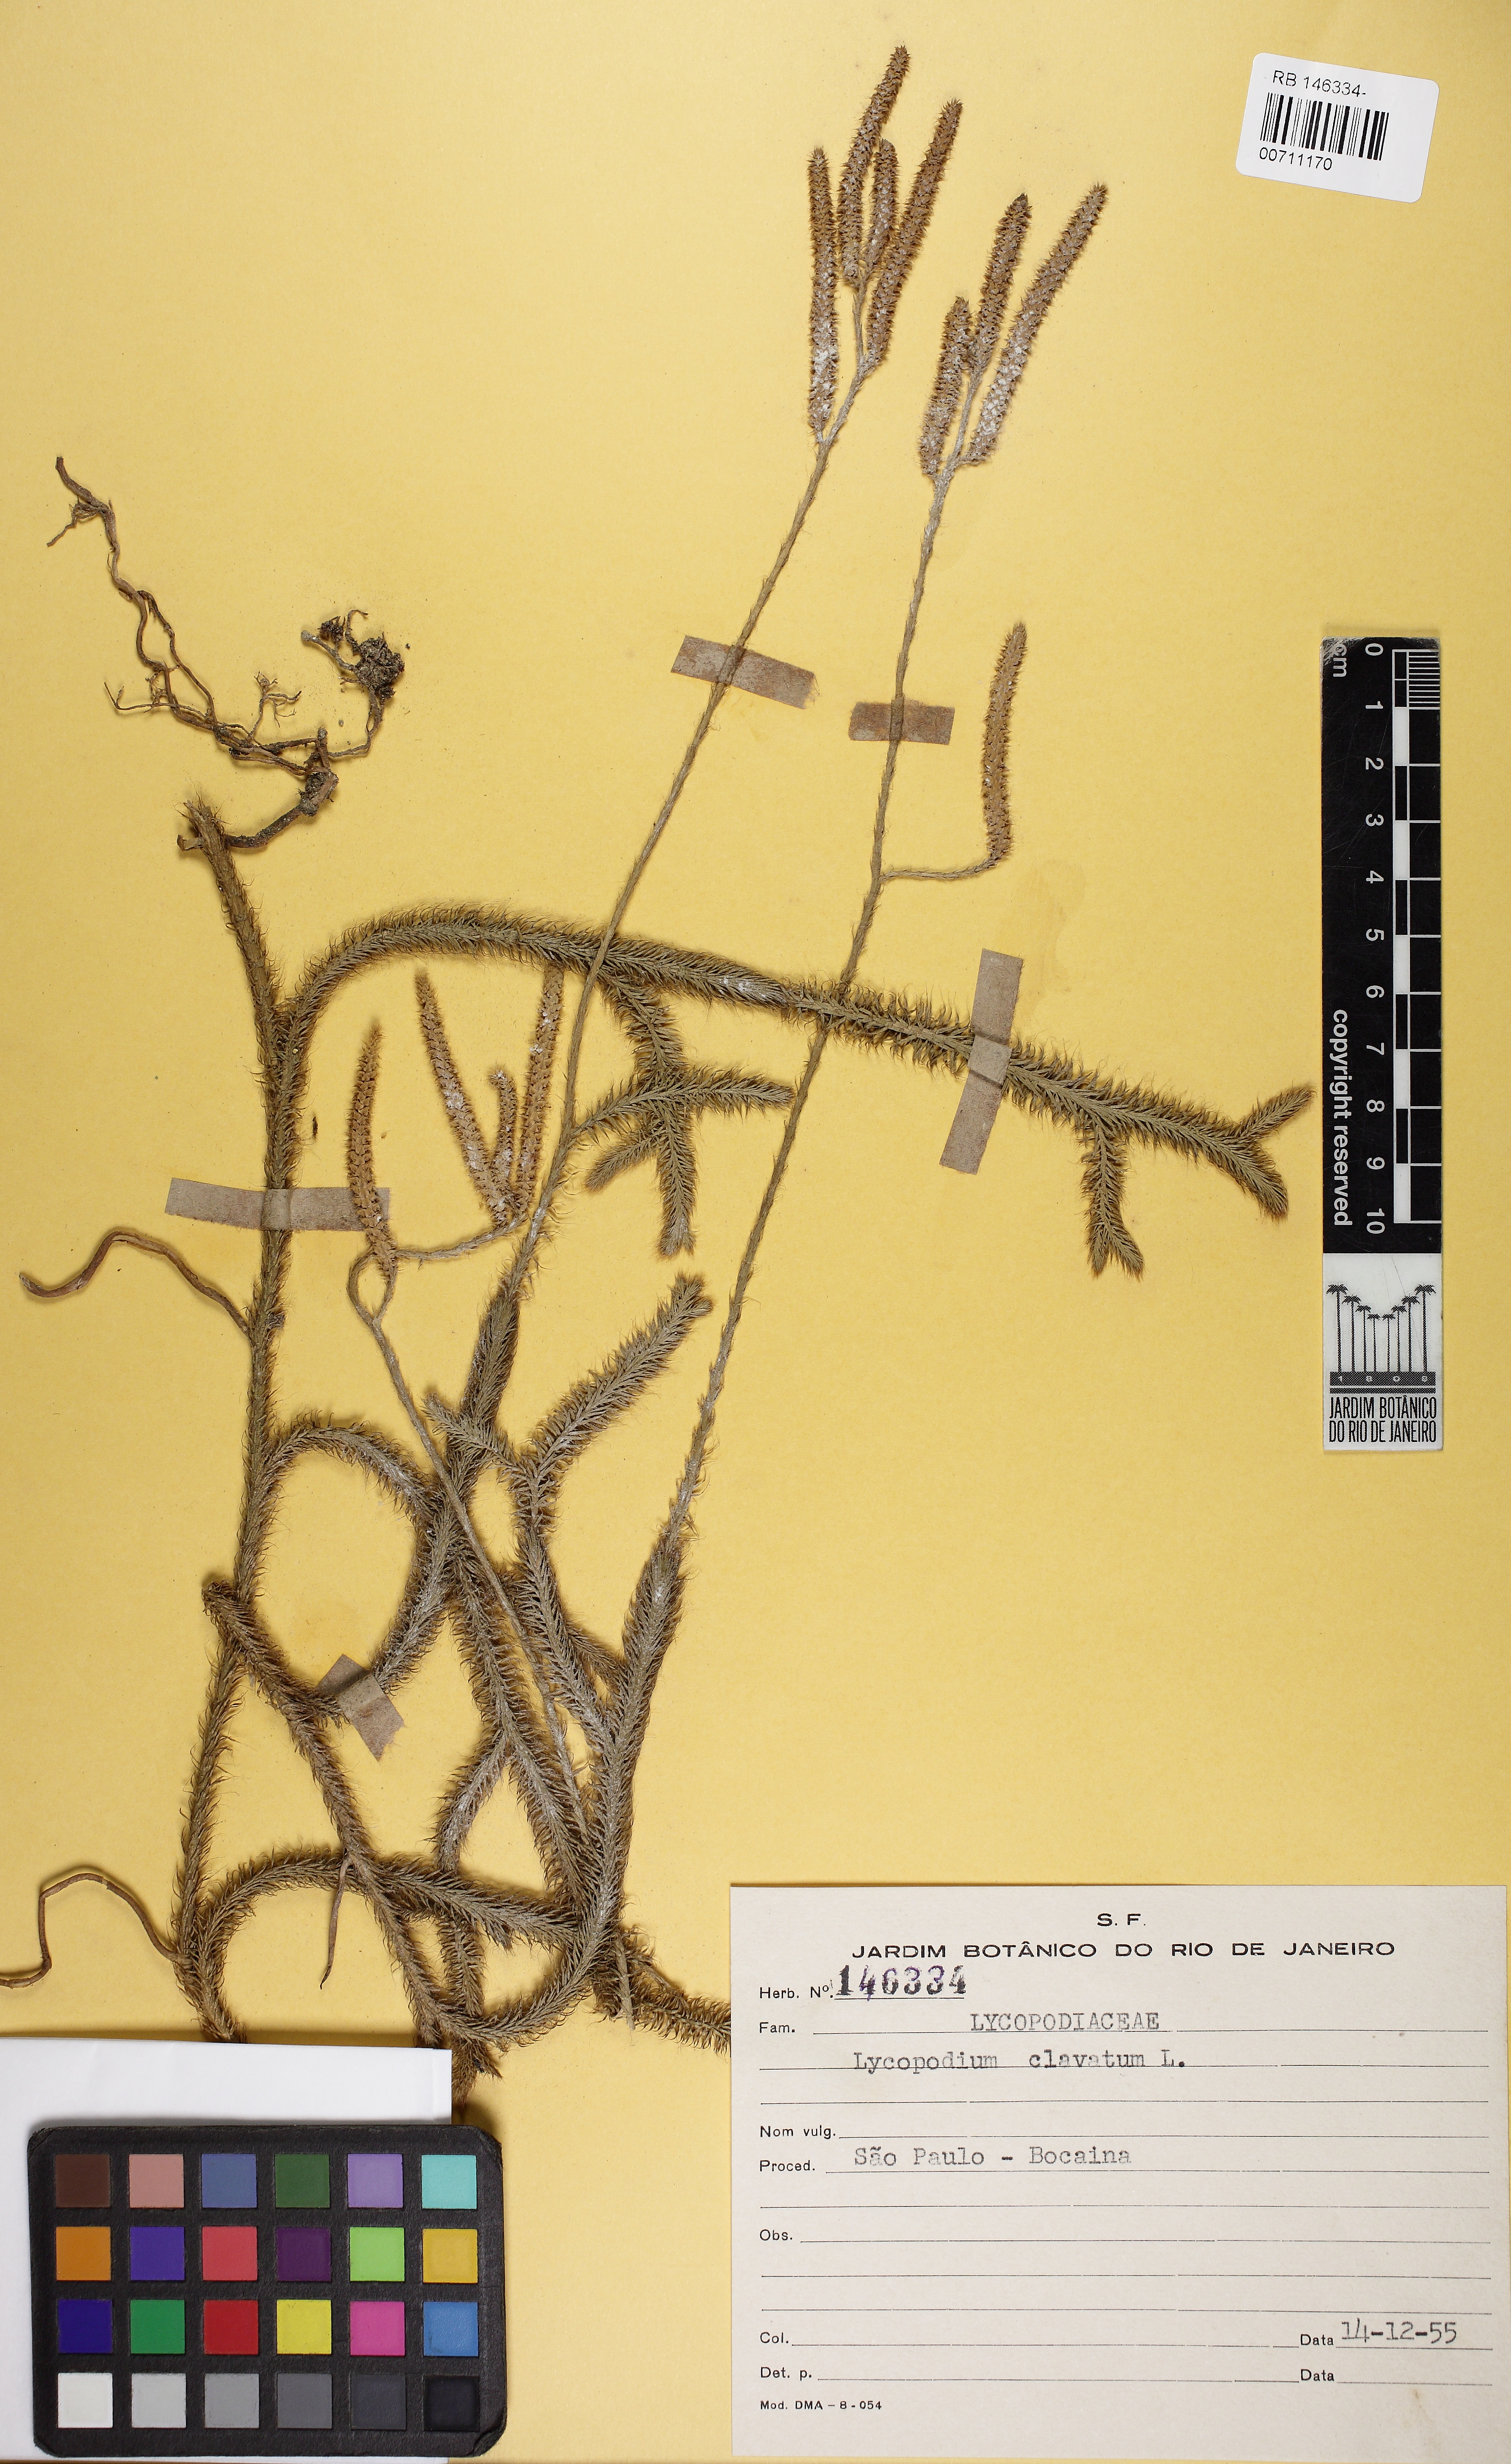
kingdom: Plantae
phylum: Tracheophyta
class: Lycopodiopsida
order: Lycopodiales
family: Lycopodiaceae
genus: Lycopodium
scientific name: Lycopodium clavatum
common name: Stag's-horn clubmoss
